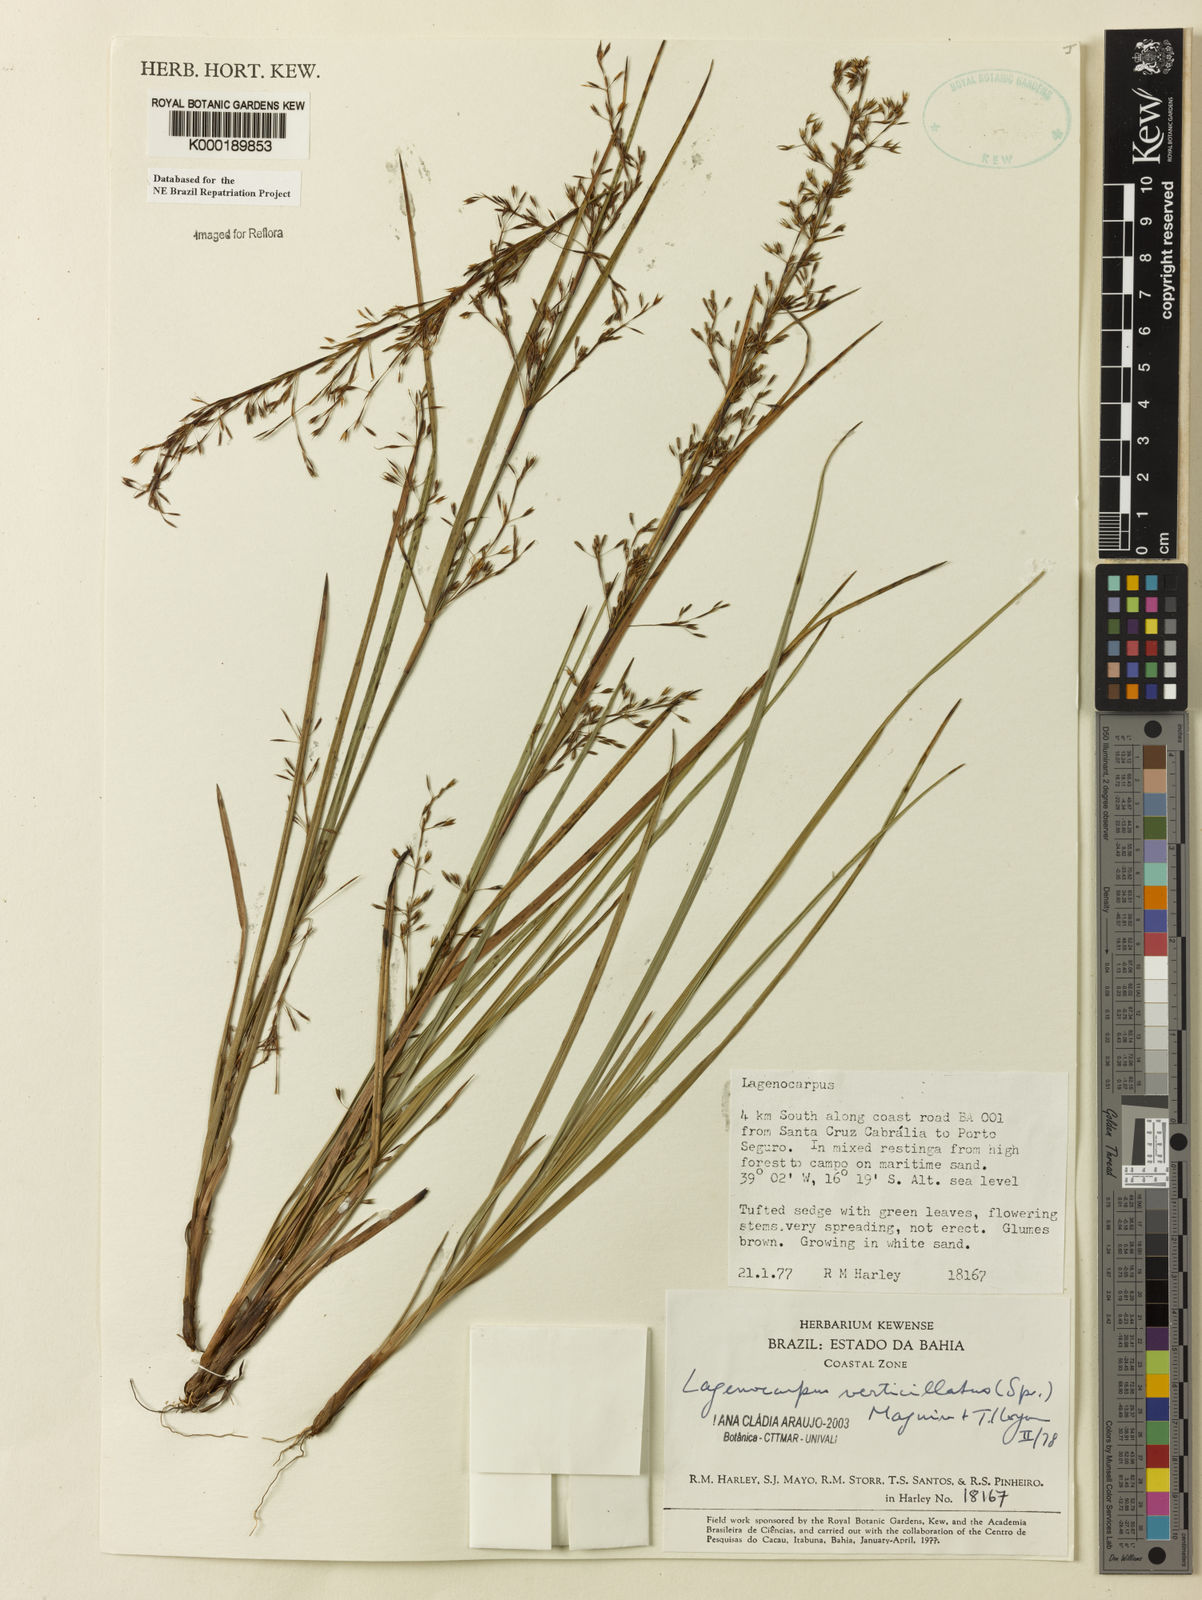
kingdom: Plantae
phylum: Tracheophyta
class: Liliopsida
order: Poales
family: Cyperaceae
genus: Cryptangium
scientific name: Cryptangium verticillatum
